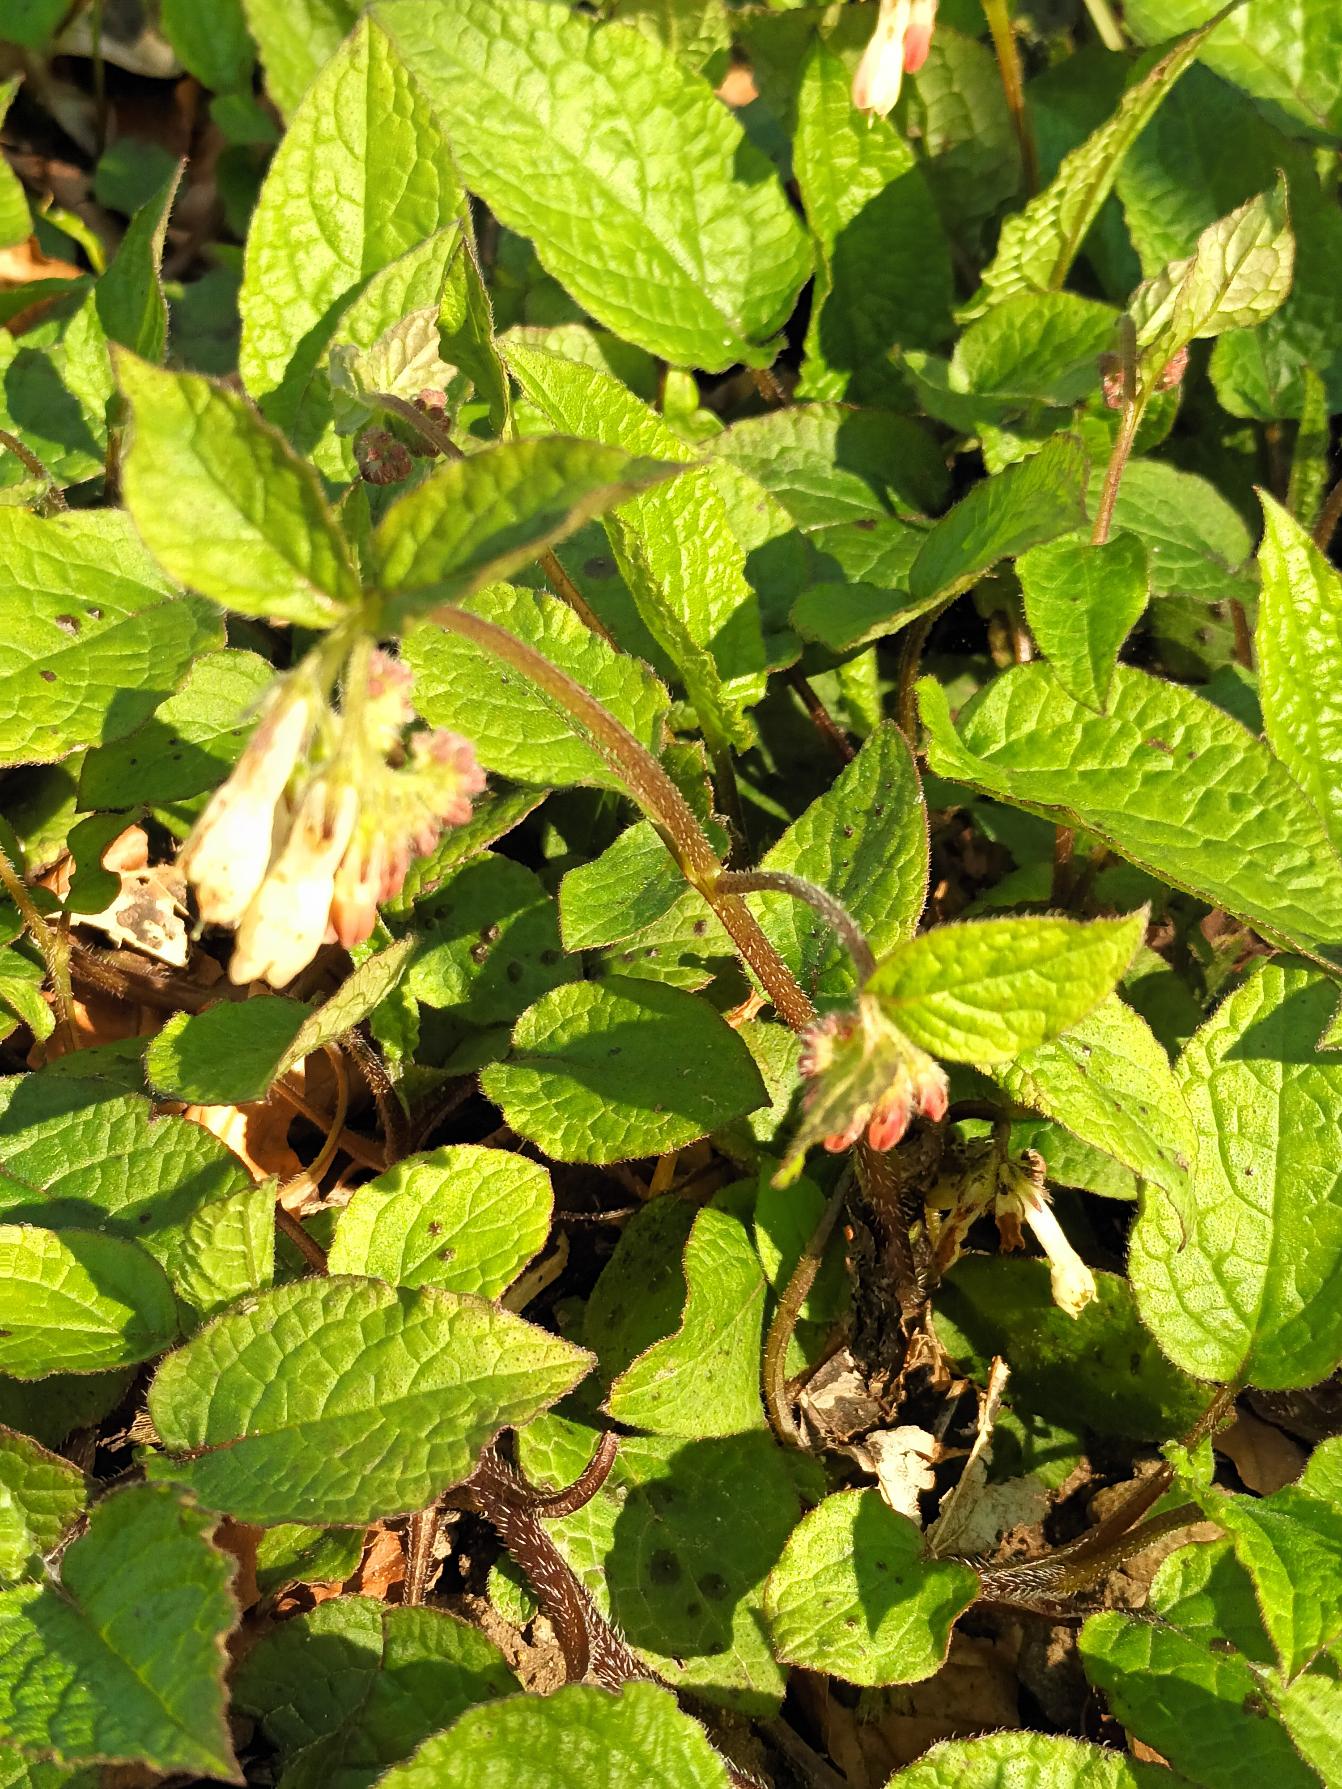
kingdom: Plantae
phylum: Tracheophyta
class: Magnoliopsida
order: Boraginales
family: Boraginaceae
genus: Symphytum
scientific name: Symphytum grandiflorum
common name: Storblomstret kulsukker
